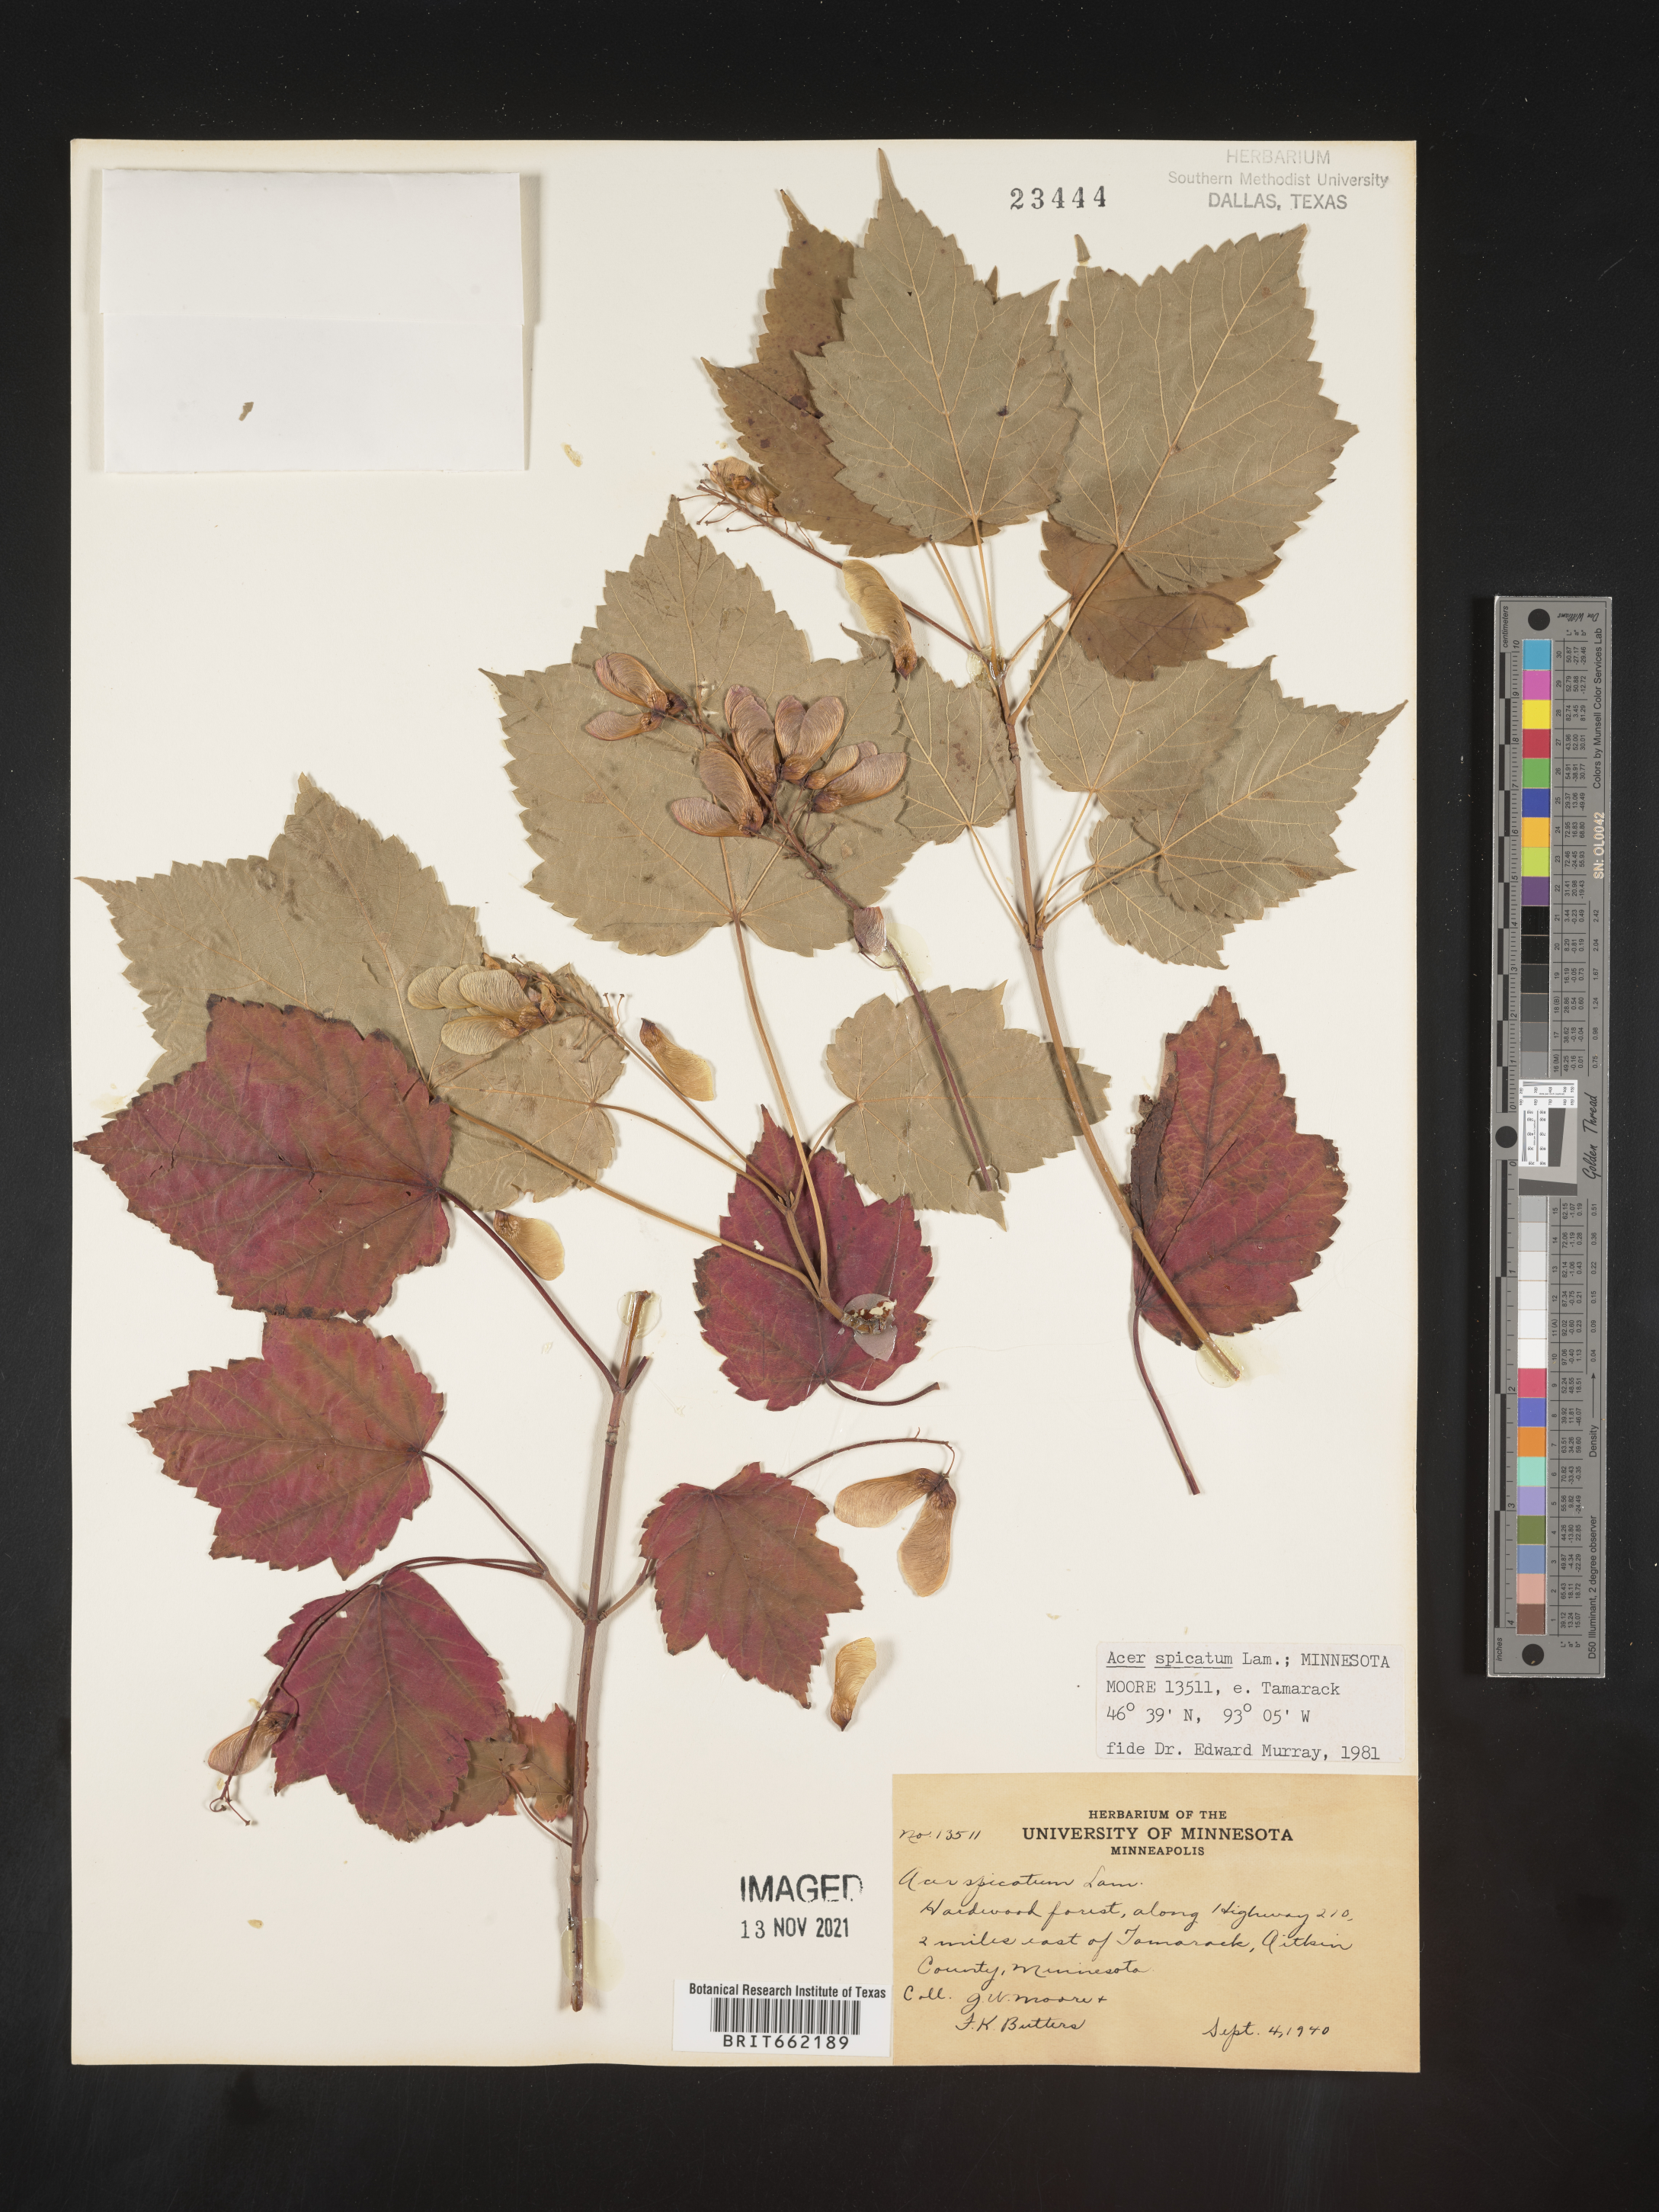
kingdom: Plantae
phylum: Tracheophyta
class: Magnoliopsida
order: Sapindales
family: Sapindaceae
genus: Acer
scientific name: Acer spicatum
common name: Mountain maple
